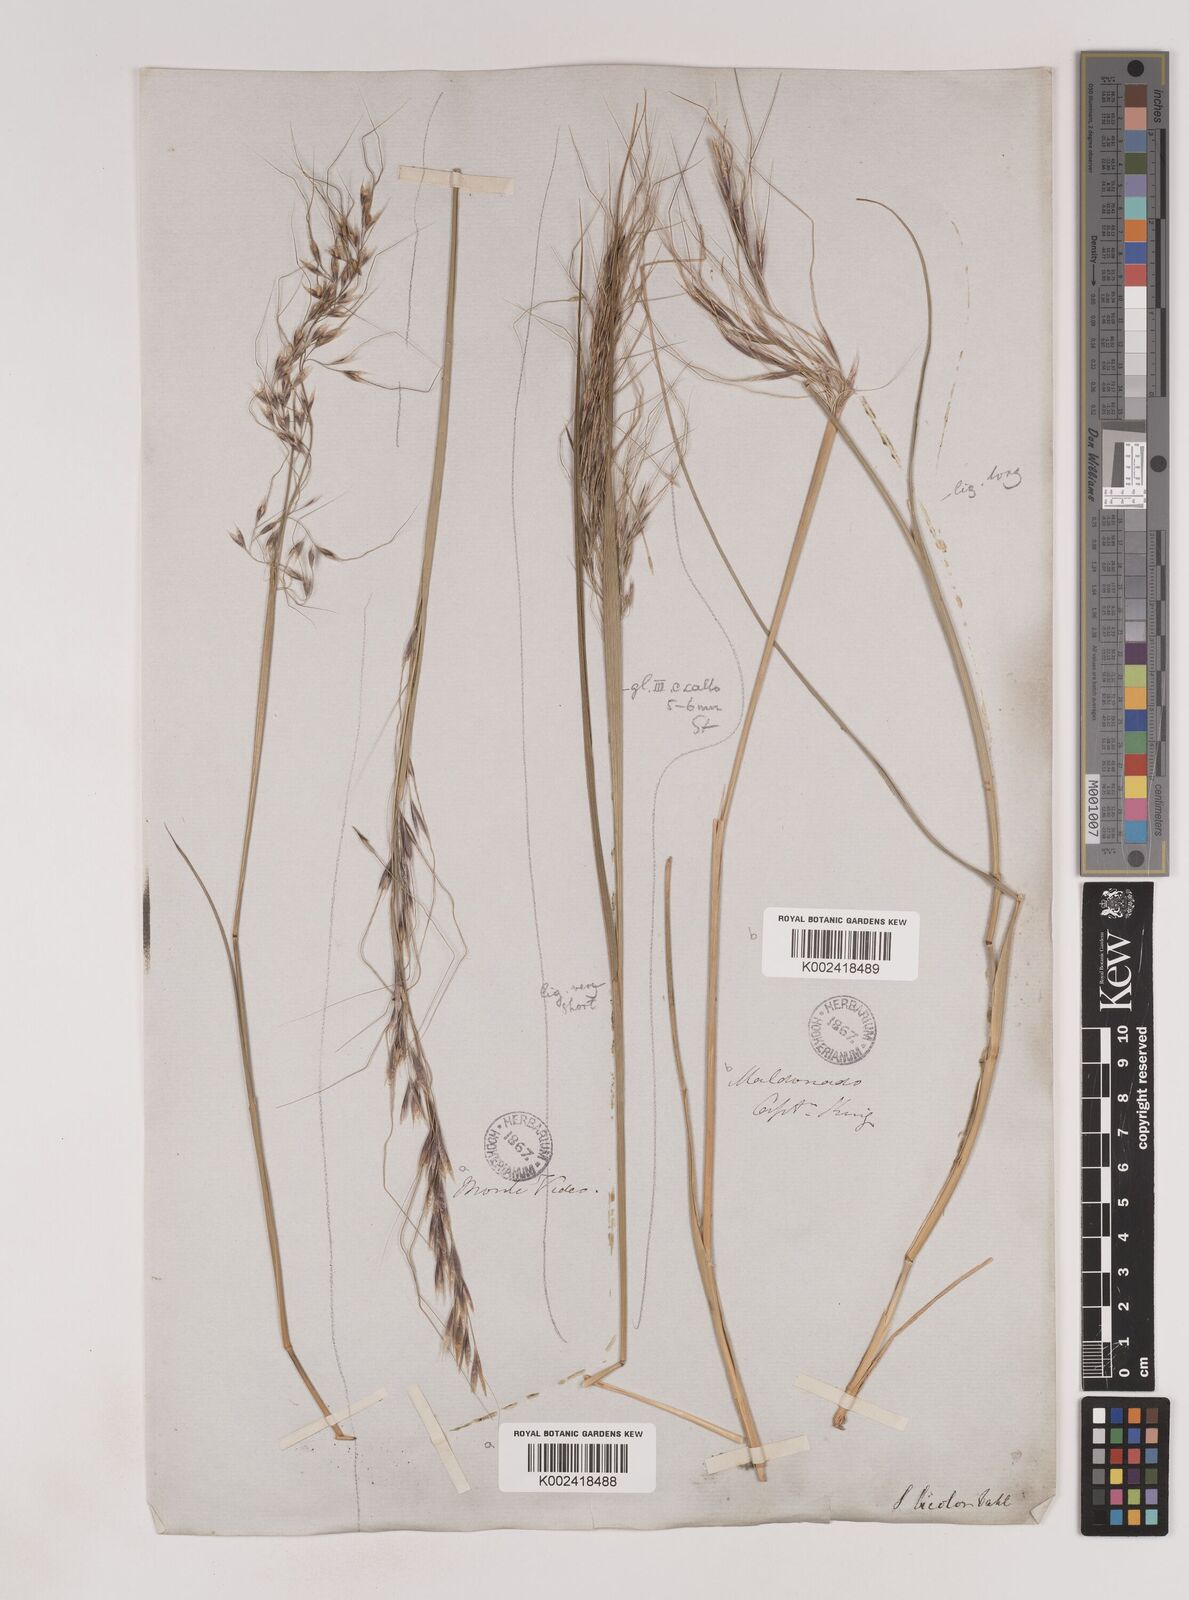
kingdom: Plantae
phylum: Tracheophyta
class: Liliopsida
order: Poales
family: Poaceae
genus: Piptochaetium
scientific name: Piptochaetium bicolor
